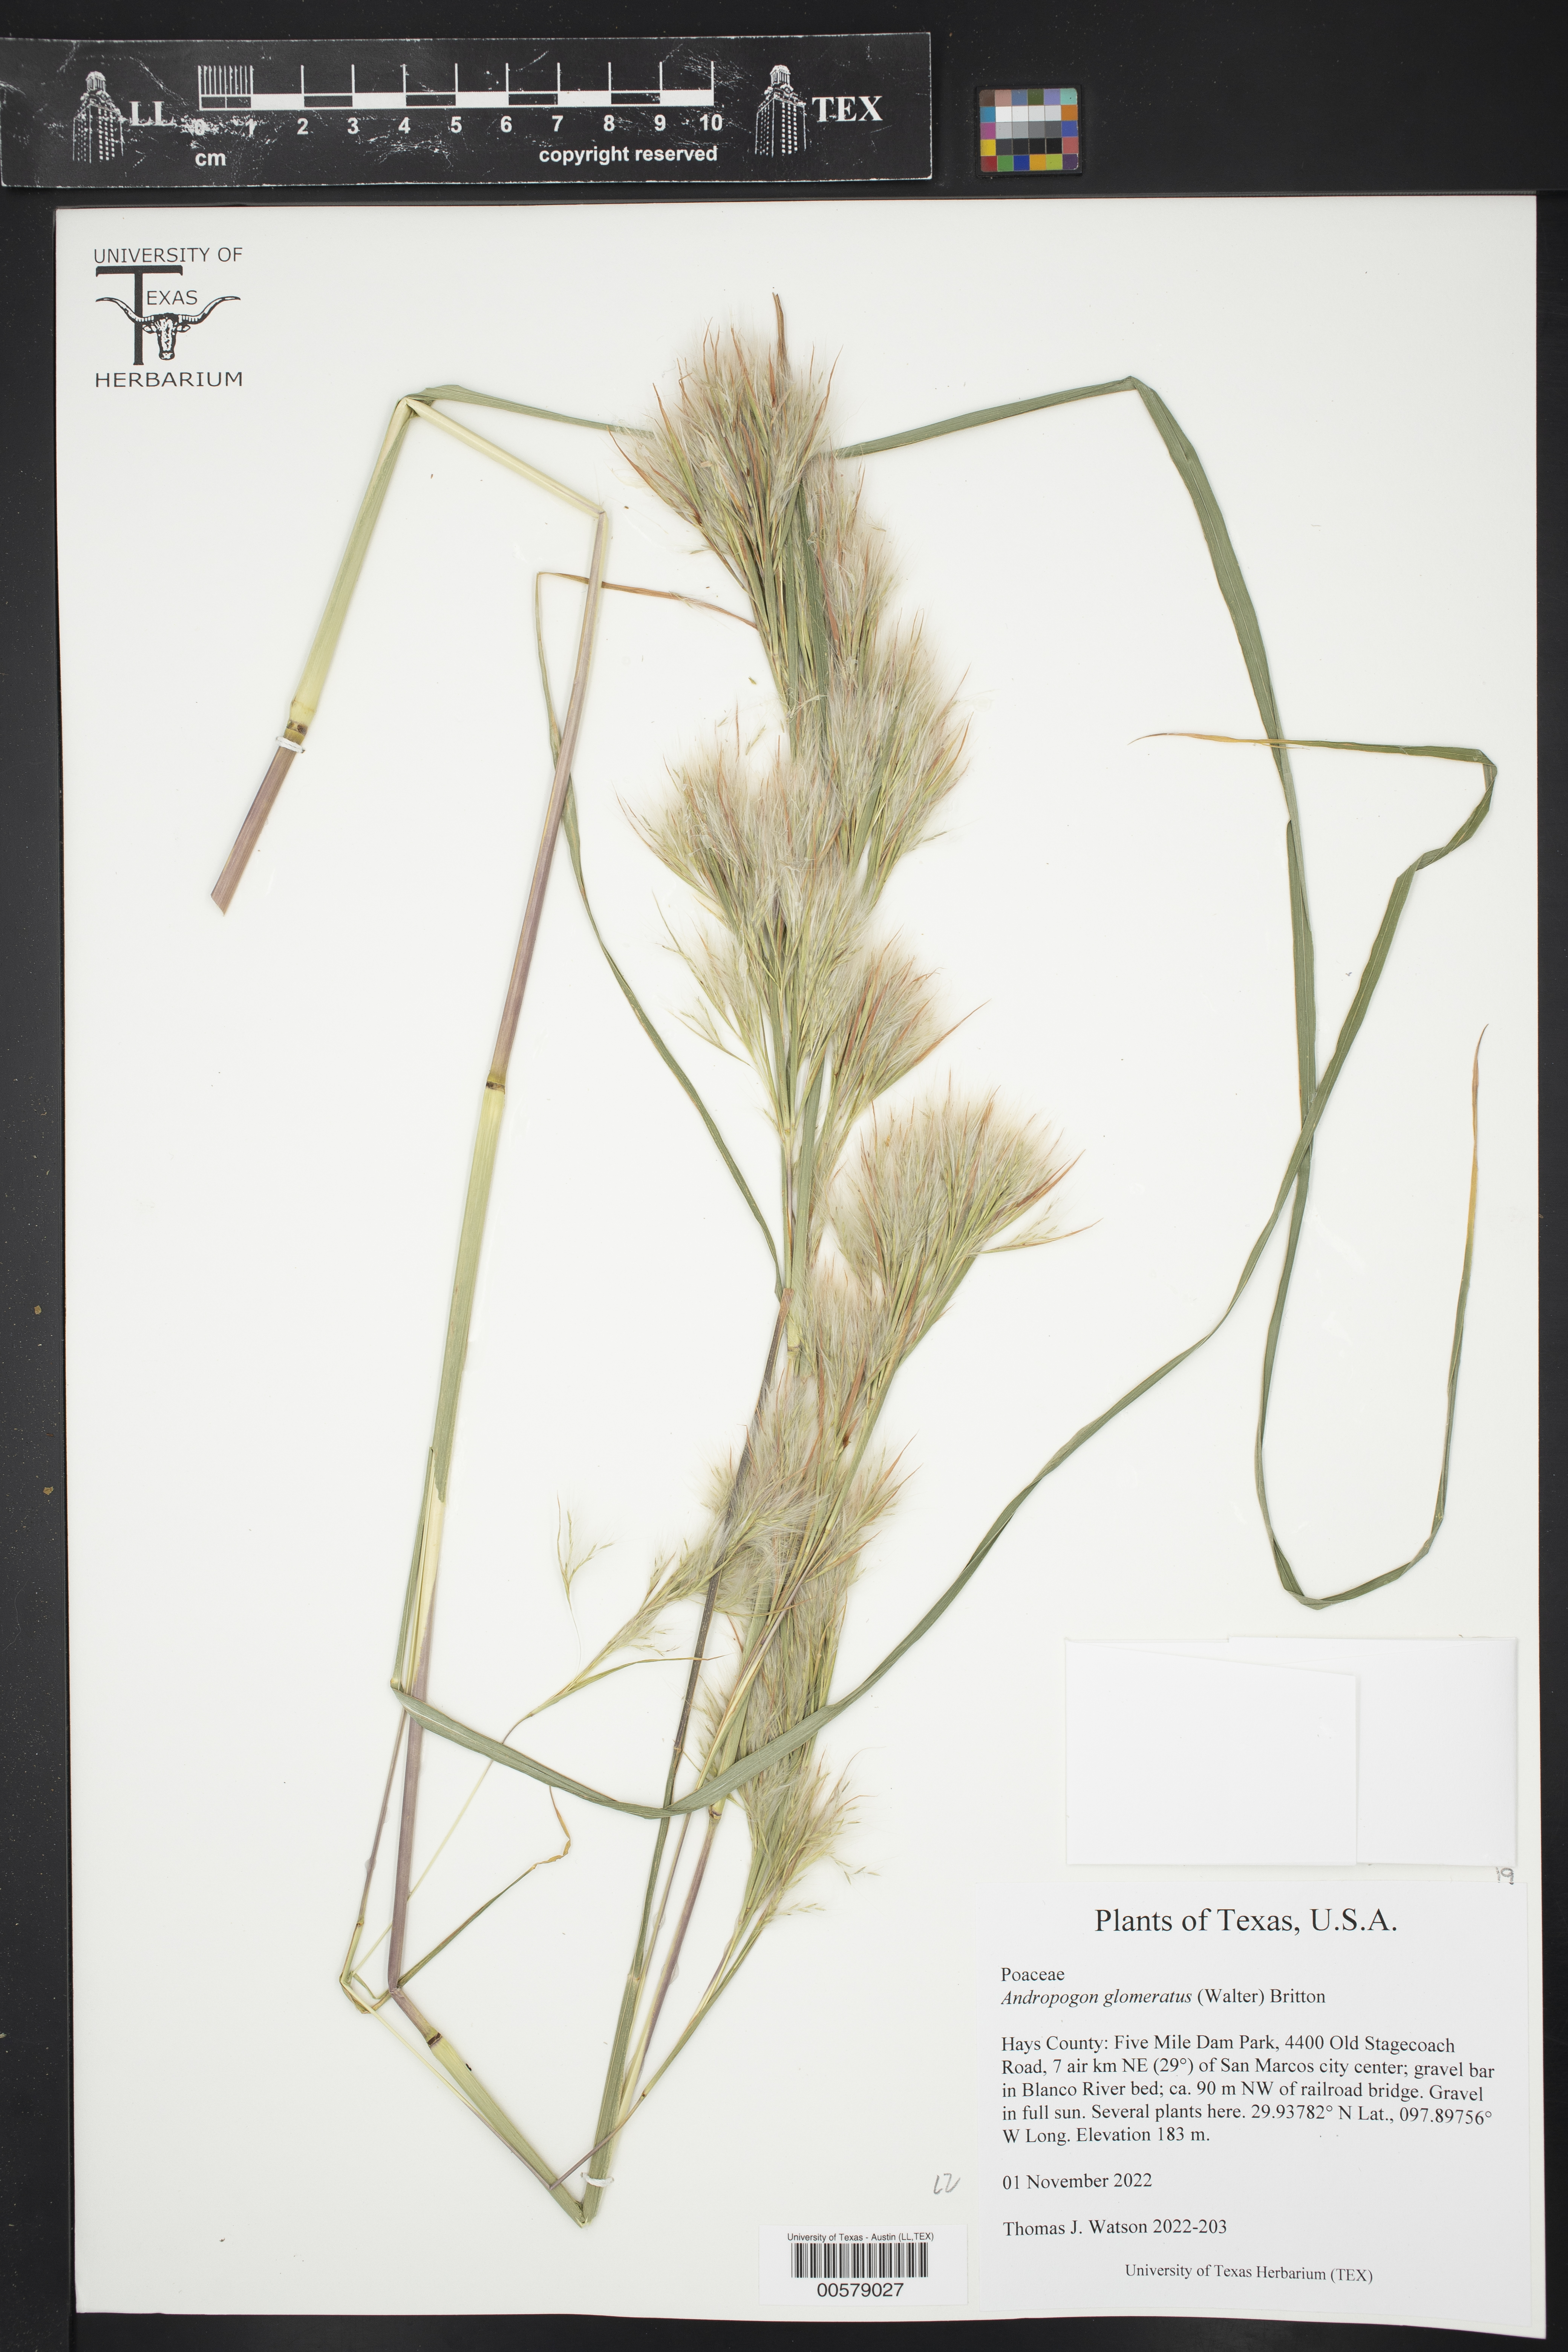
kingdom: Plantae
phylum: Tracheophyta
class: Liliopsida
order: Poales
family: Poaceae
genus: Andropogon
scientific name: Andropogon glomeratus
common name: Bushy beard grass
